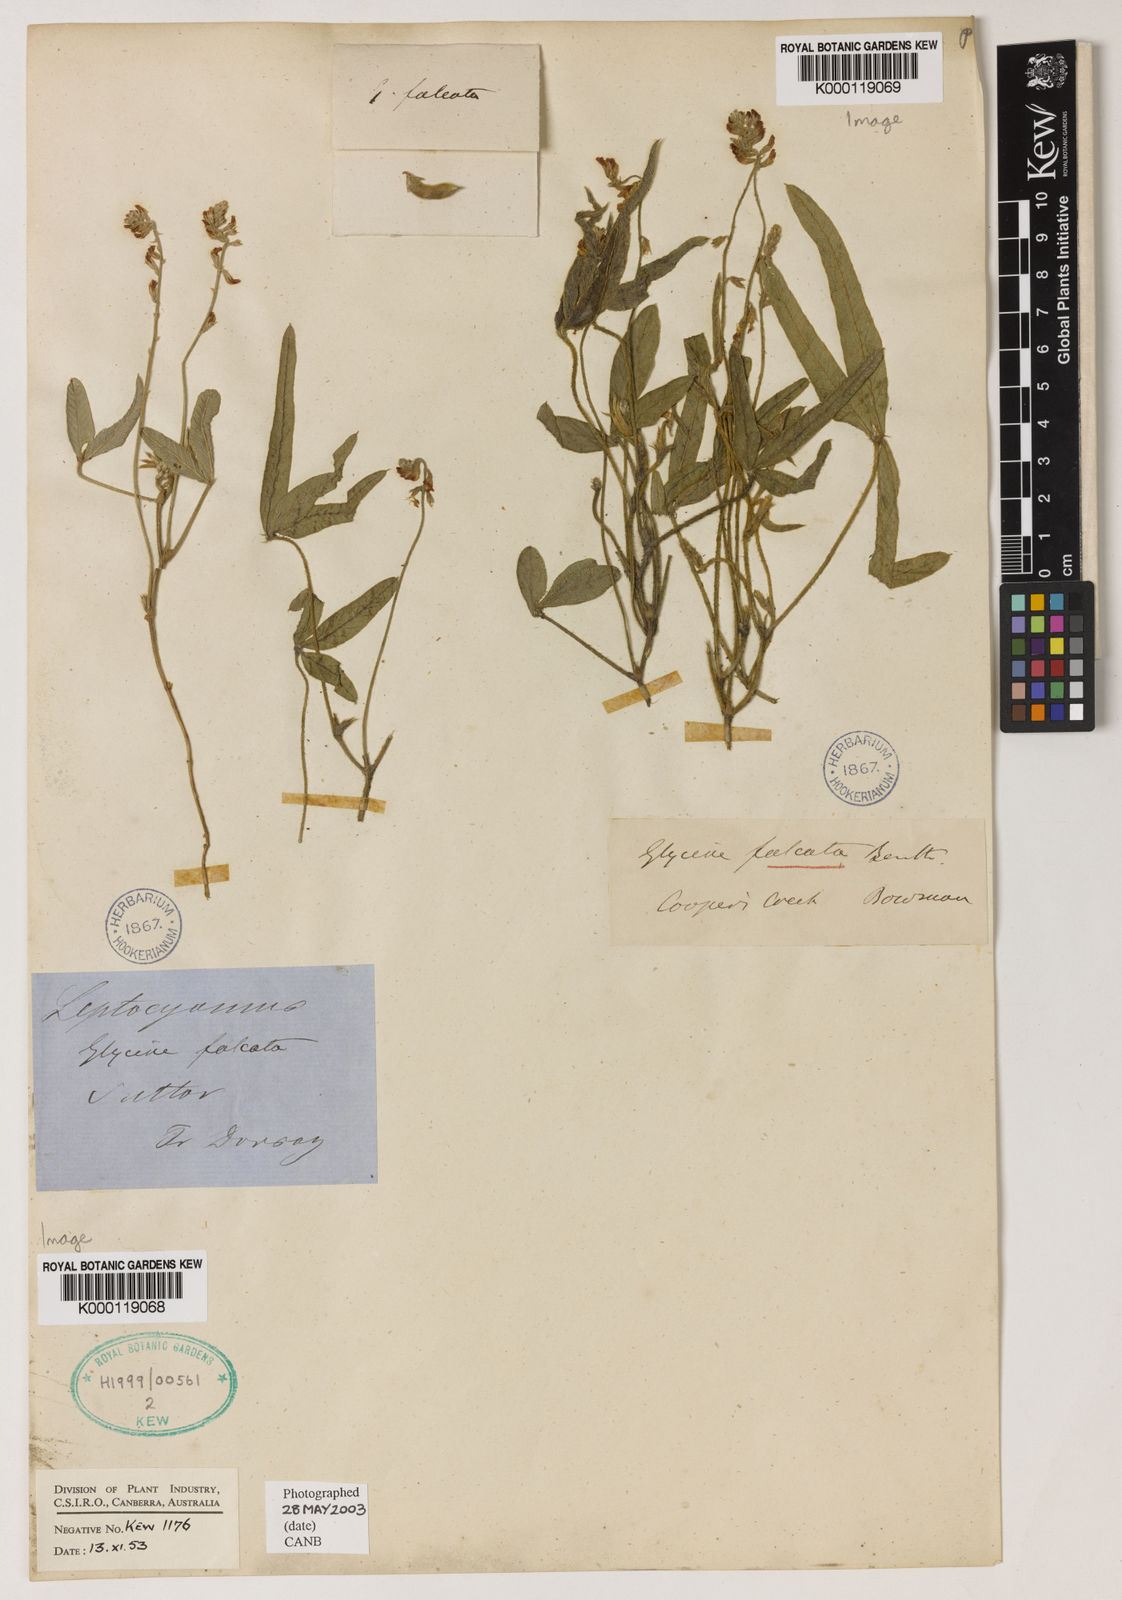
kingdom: Plantae
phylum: Tracheophyta
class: Magnoliopsida
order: Fabales
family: Fabaceae
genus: Glycine
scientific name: Glycine falcata
